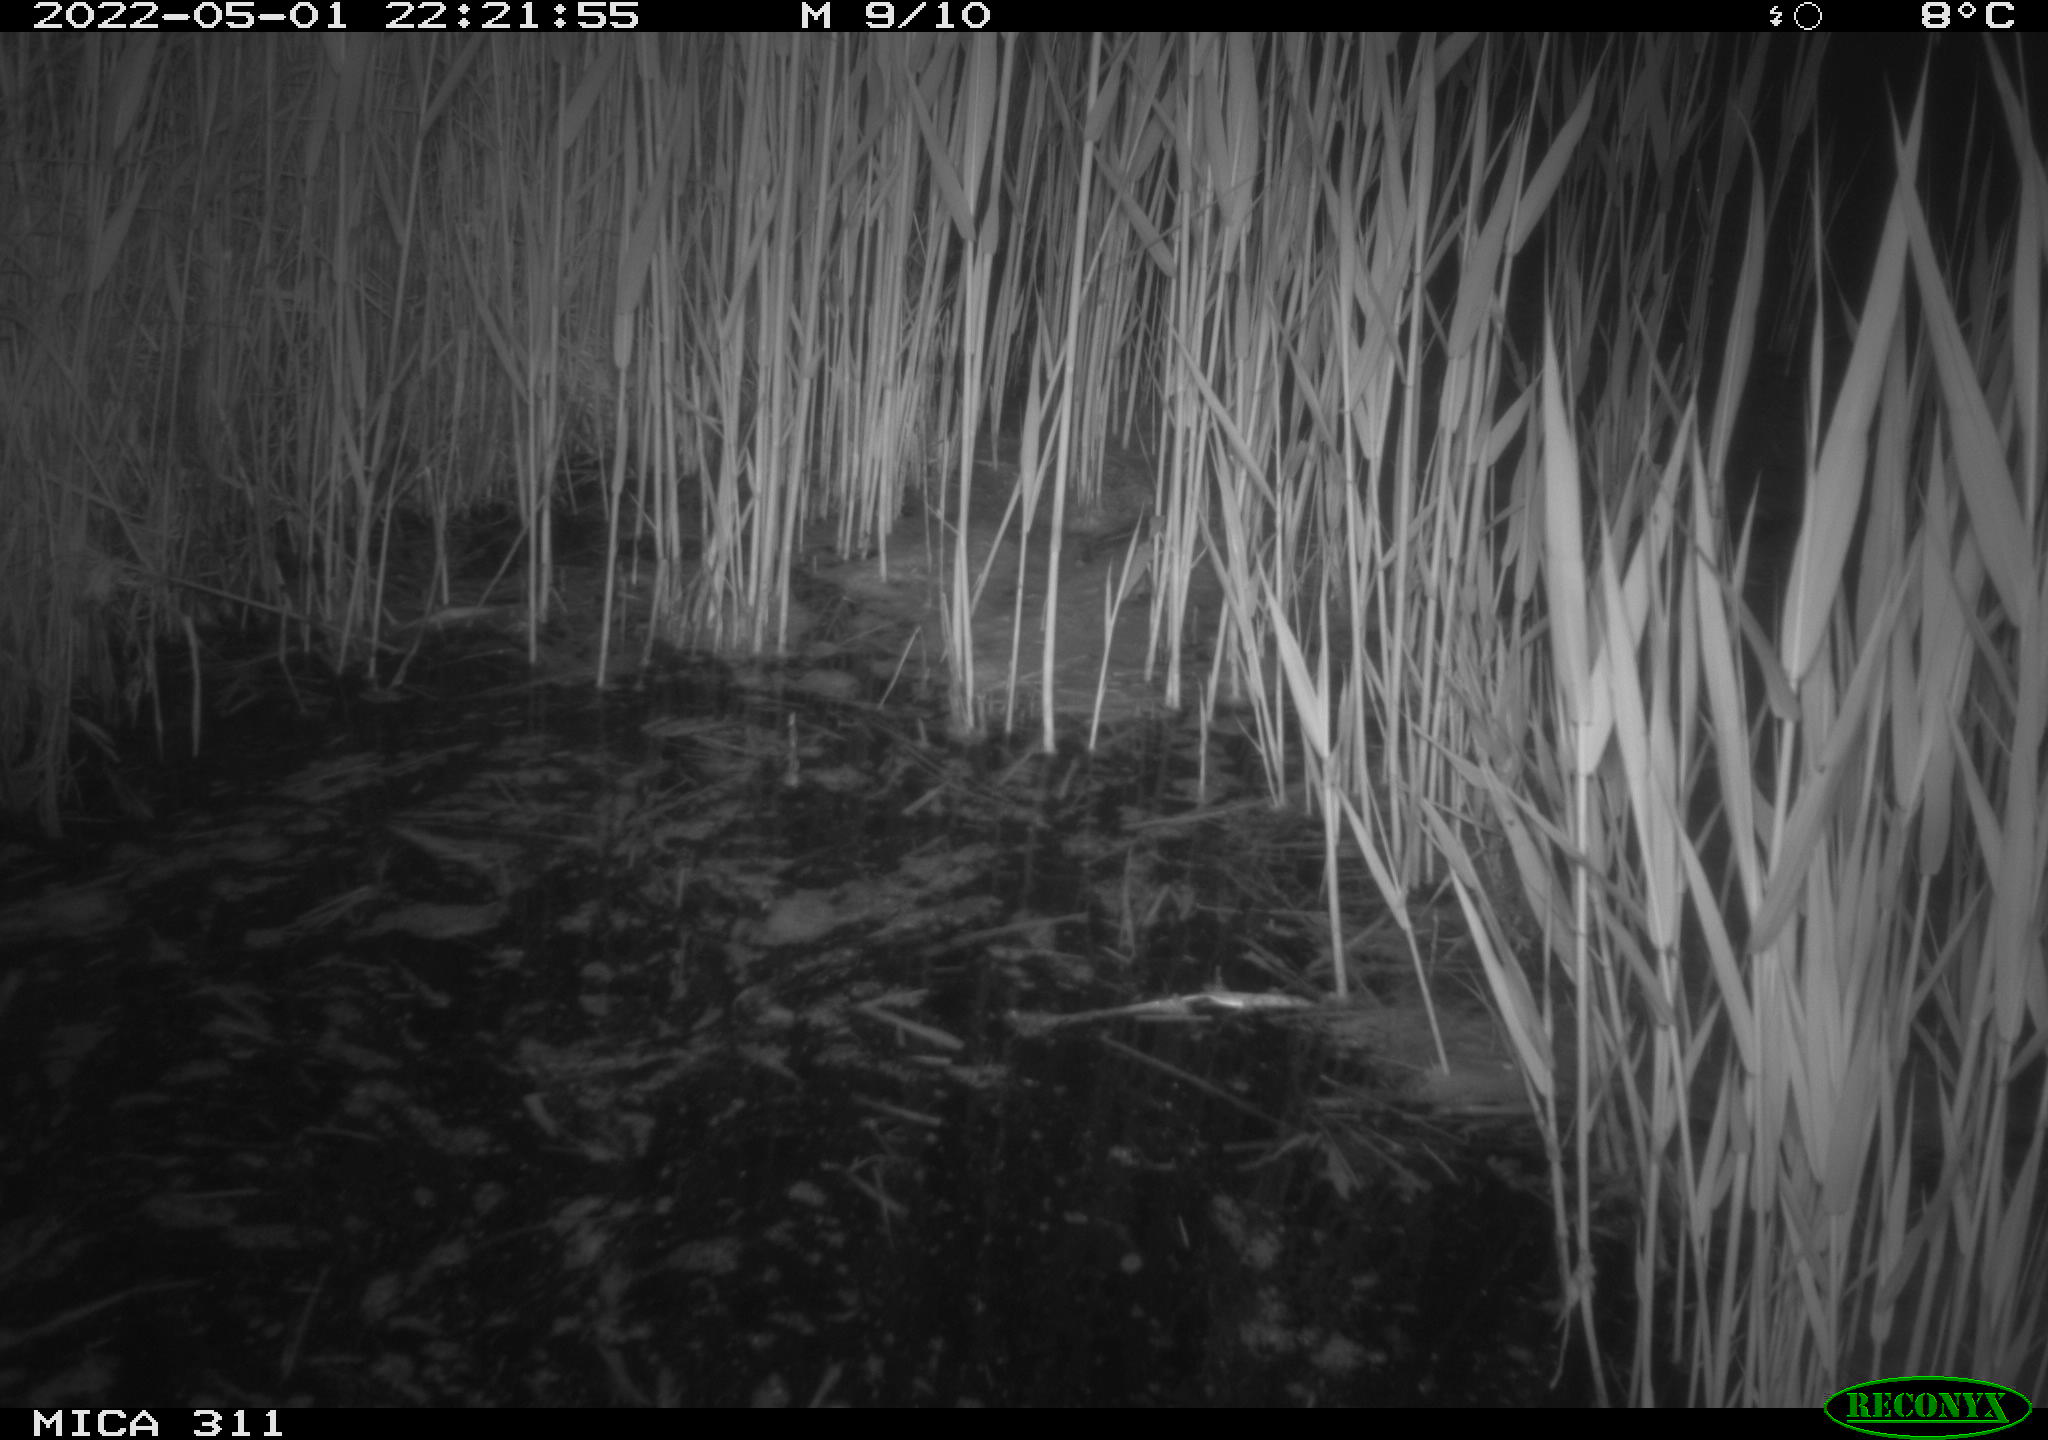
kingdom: Animalia
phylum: Chordata
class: Aves
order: Anseriformes
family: Anatidae
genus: Anas
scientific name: Anas platyrhynchos
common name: Mallard
